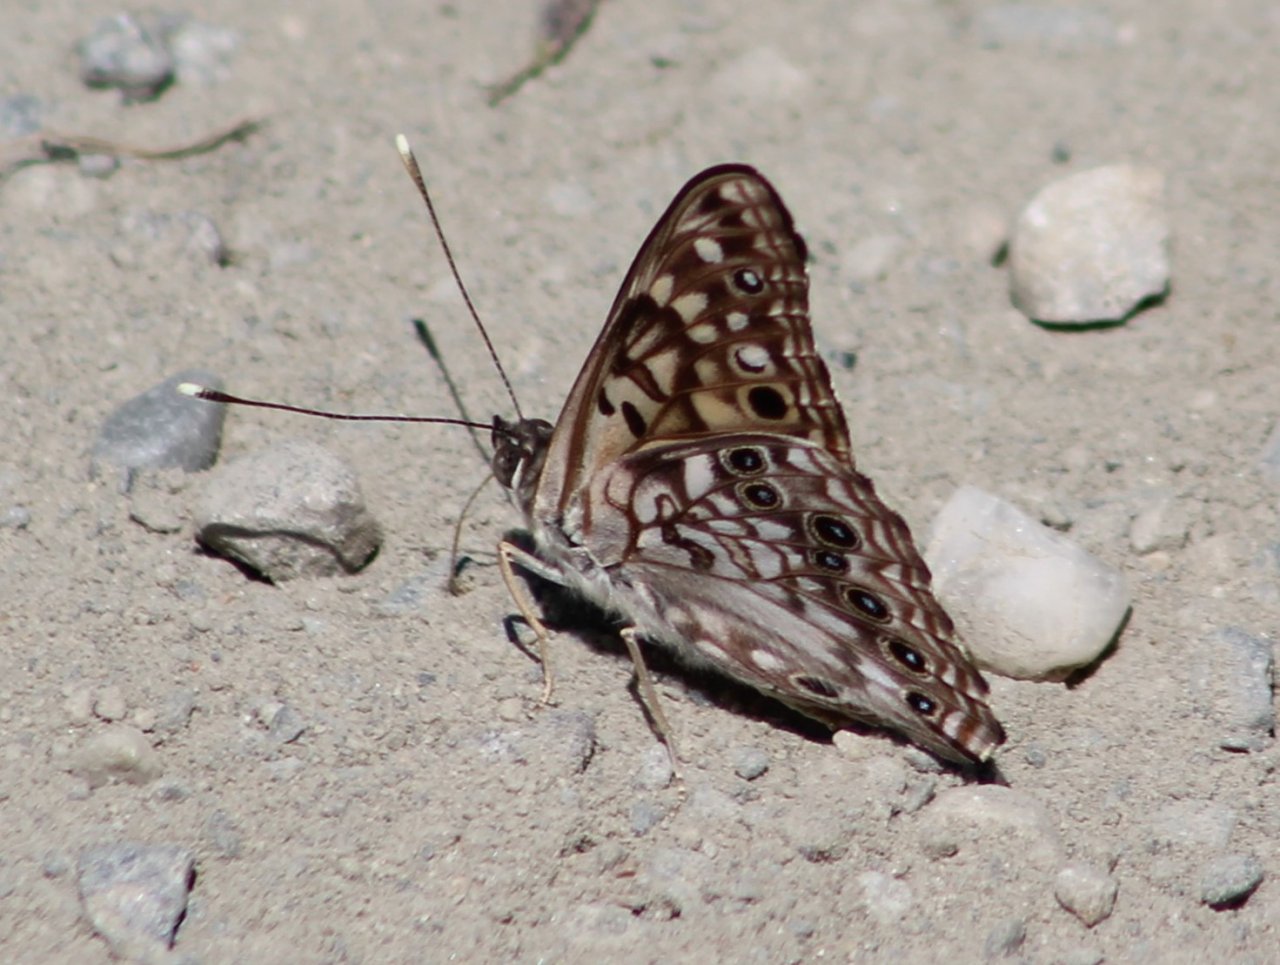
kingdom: Animalia
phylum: Arthropoda
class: Insecta
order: Lepidoptera
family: Nymphalidae
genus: Asterocampa
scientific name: Asterocampa celtis
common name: Hackberry Emperor
